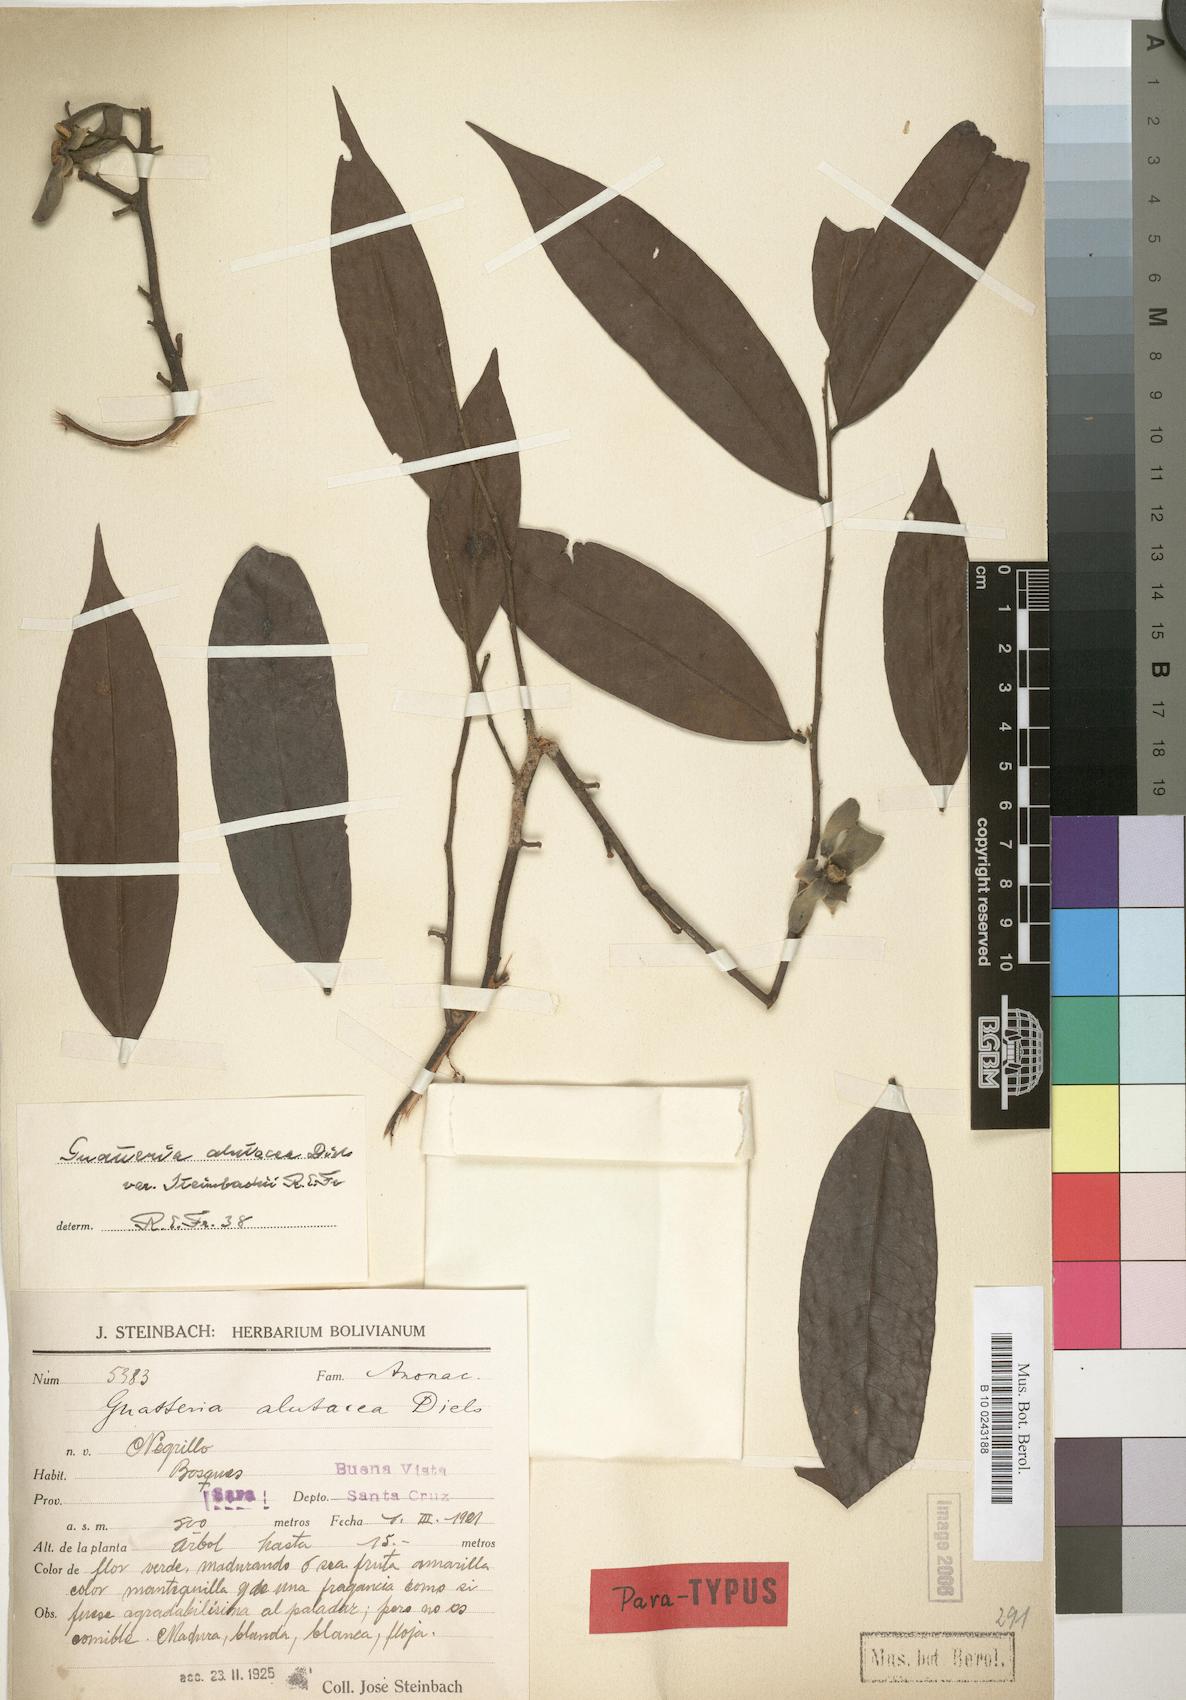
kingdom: Plantae
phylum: Tracheophyta
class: Magnoliopsida
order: Magnoliales
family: Annonaceae
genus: Guatteria
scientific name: Guatteria alutacea
